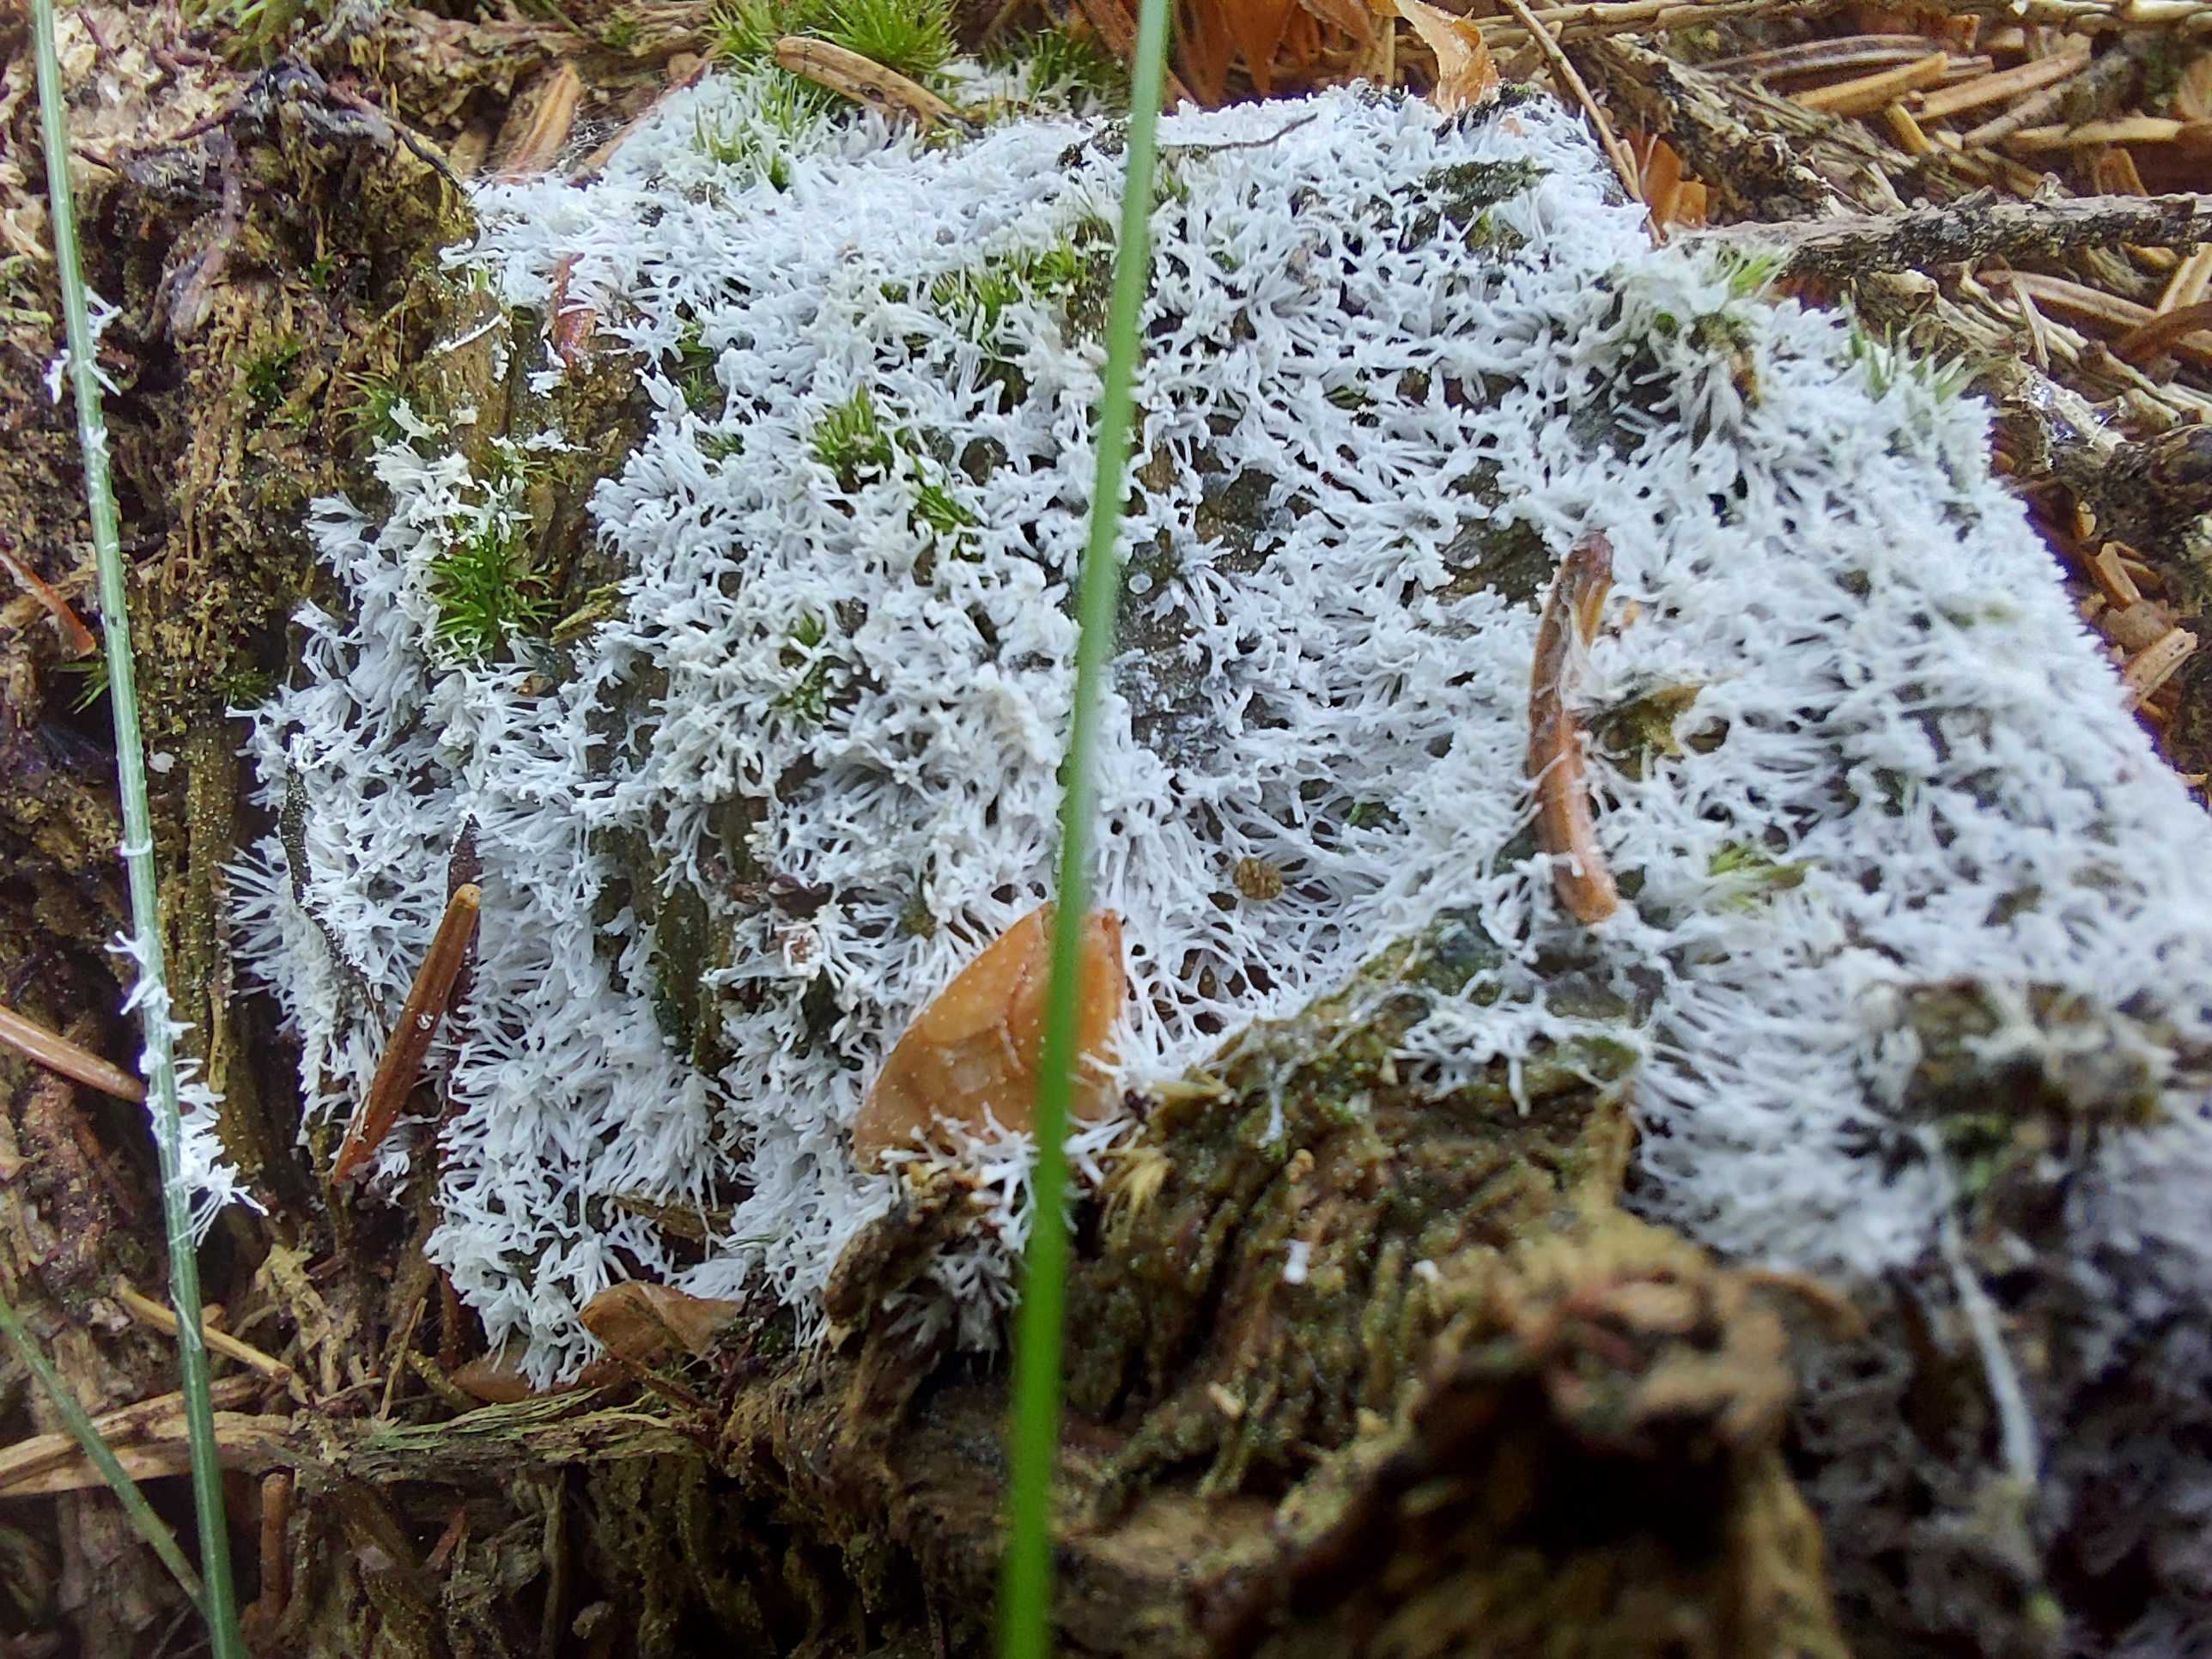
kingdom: Protozoa
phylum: Mycetozoa
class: Protosteliomycetes
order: Ceratiomyxales
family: Ceratiomyxaceae
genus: Ceratiomyxa
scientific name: Ceratiomyxa fruticulosa
